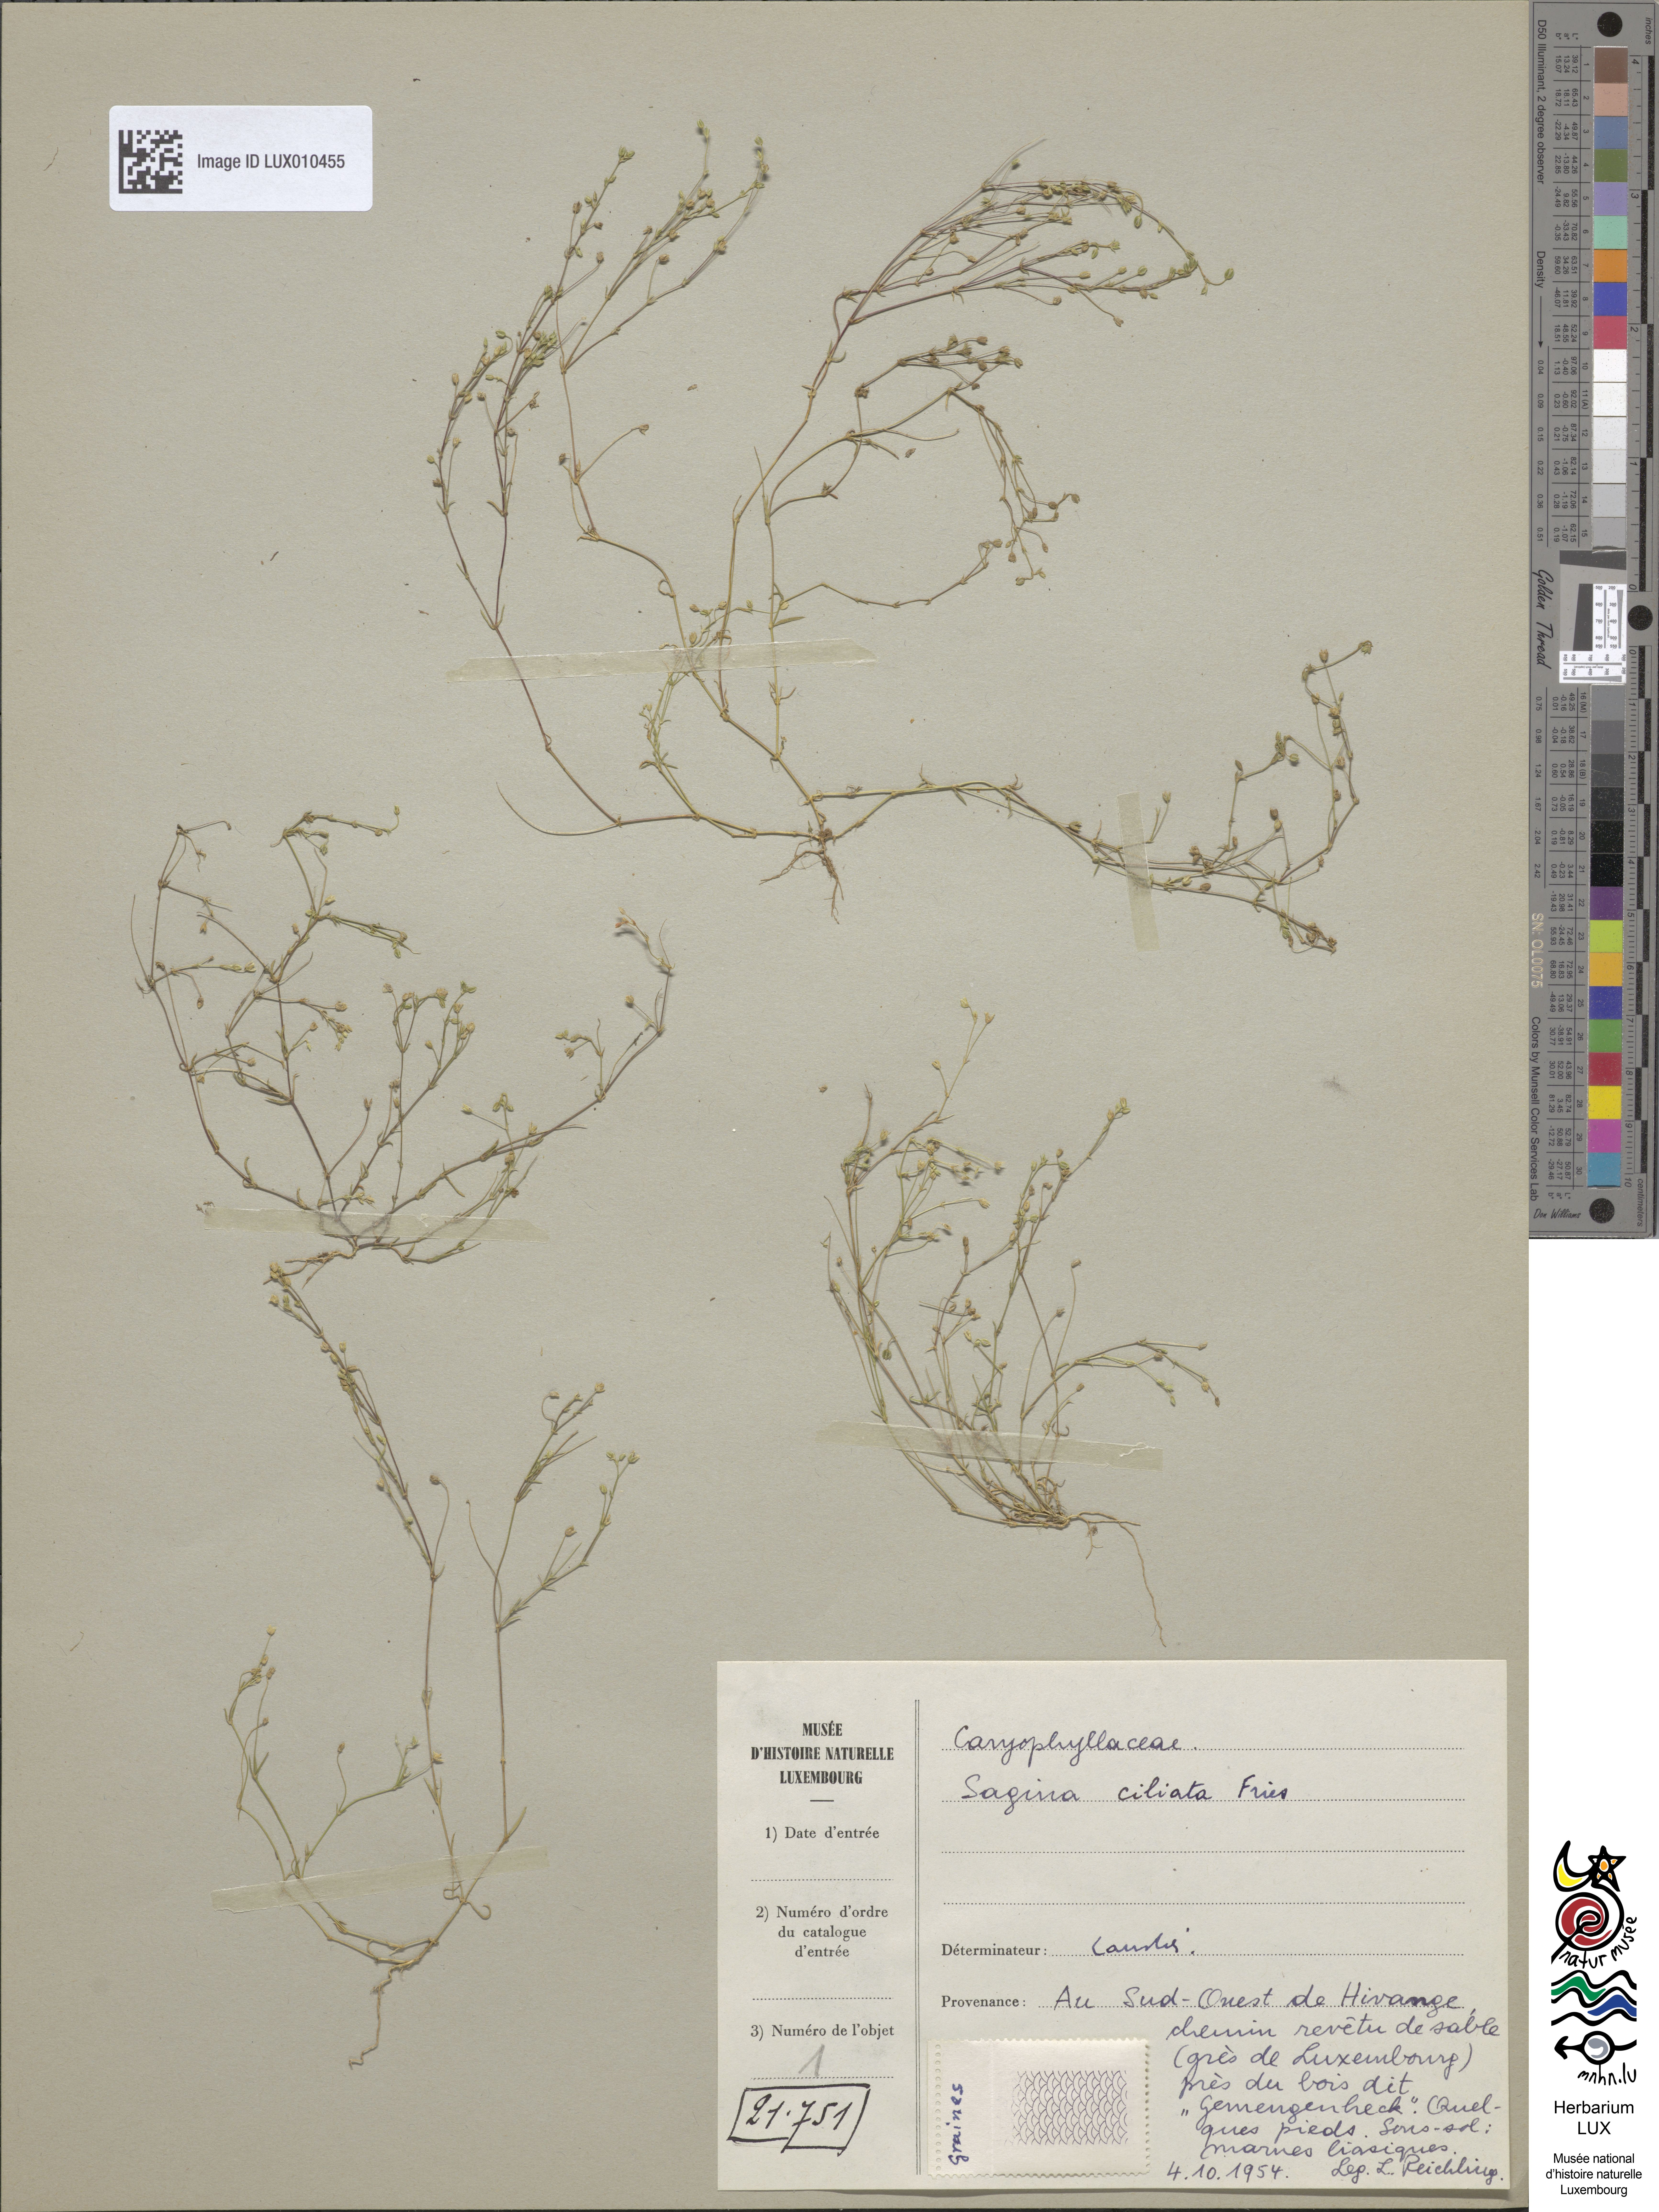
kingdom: Plantae
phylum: Tracheophyta
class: Magnoliopsida
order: Caryophyllales
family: Caryophyllaceae
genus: Sagina
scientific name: Sagina apetala
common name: Annual pearlwort
